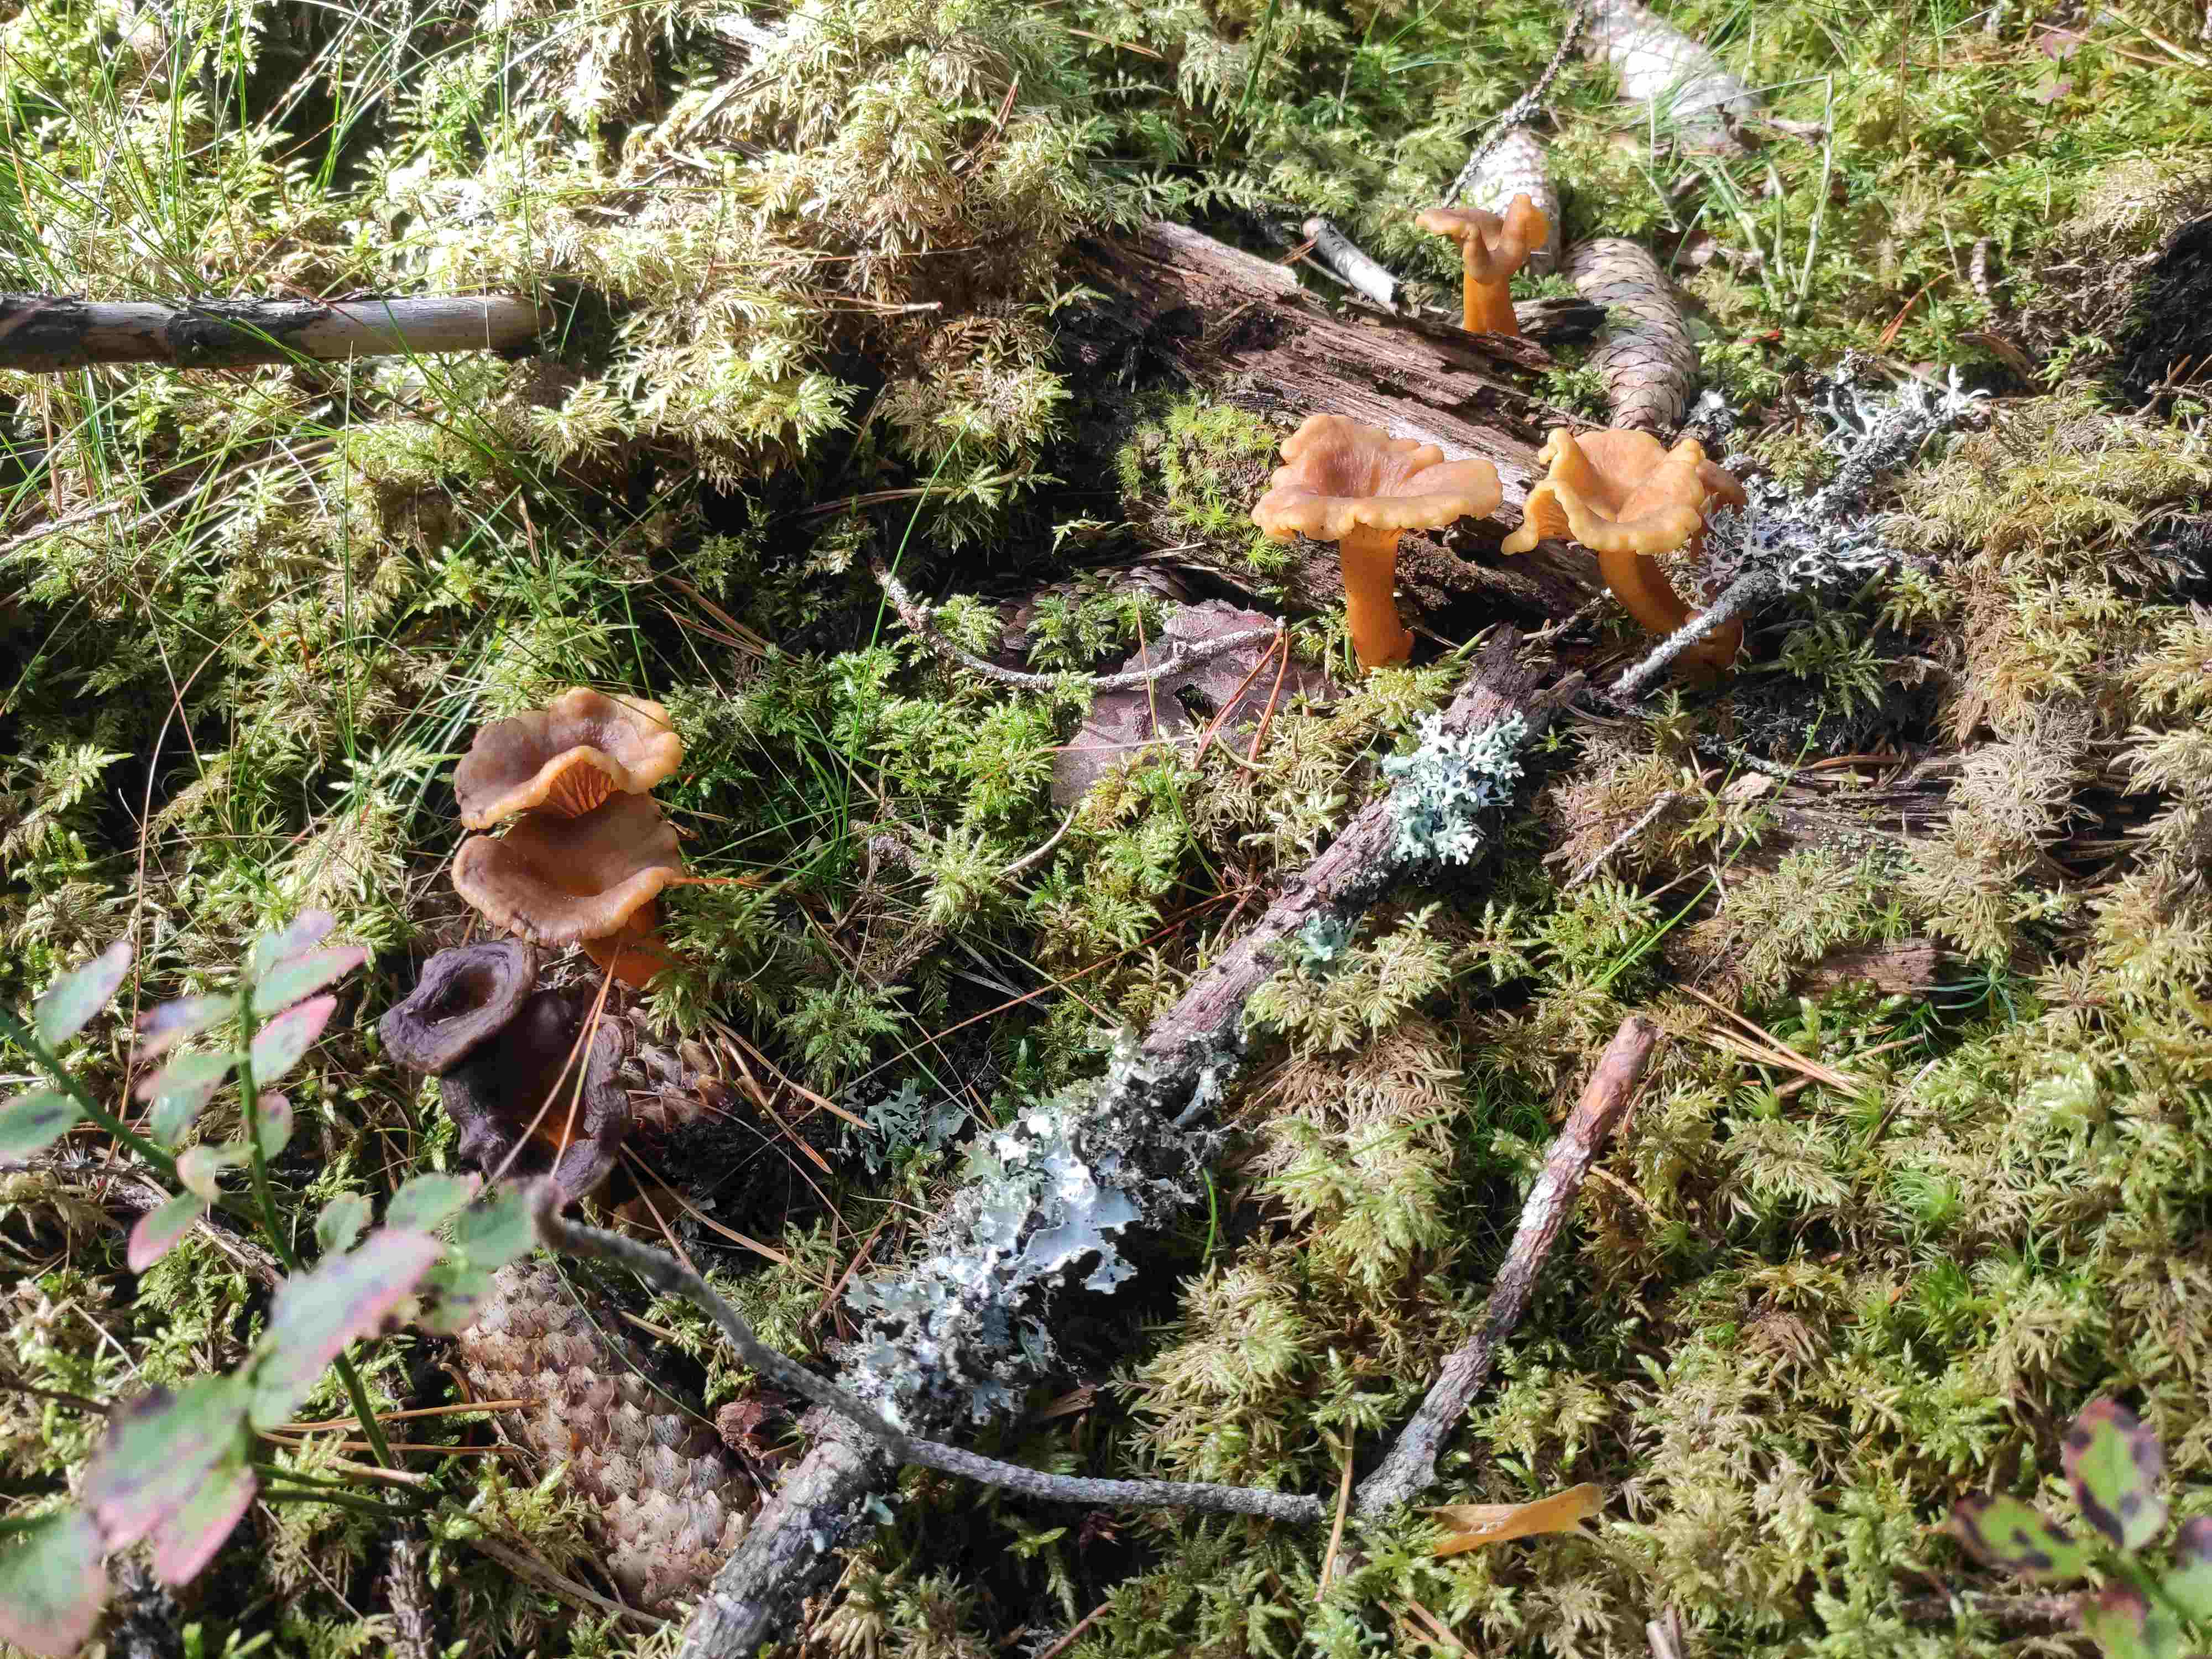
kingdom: Fungi
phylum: Basidiomycota
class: Agaricomycetes
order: Cantharellales
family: Hydnaceae
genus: Craterellus
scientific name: Craterellus tubaeformis
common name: tragt-kantarel
